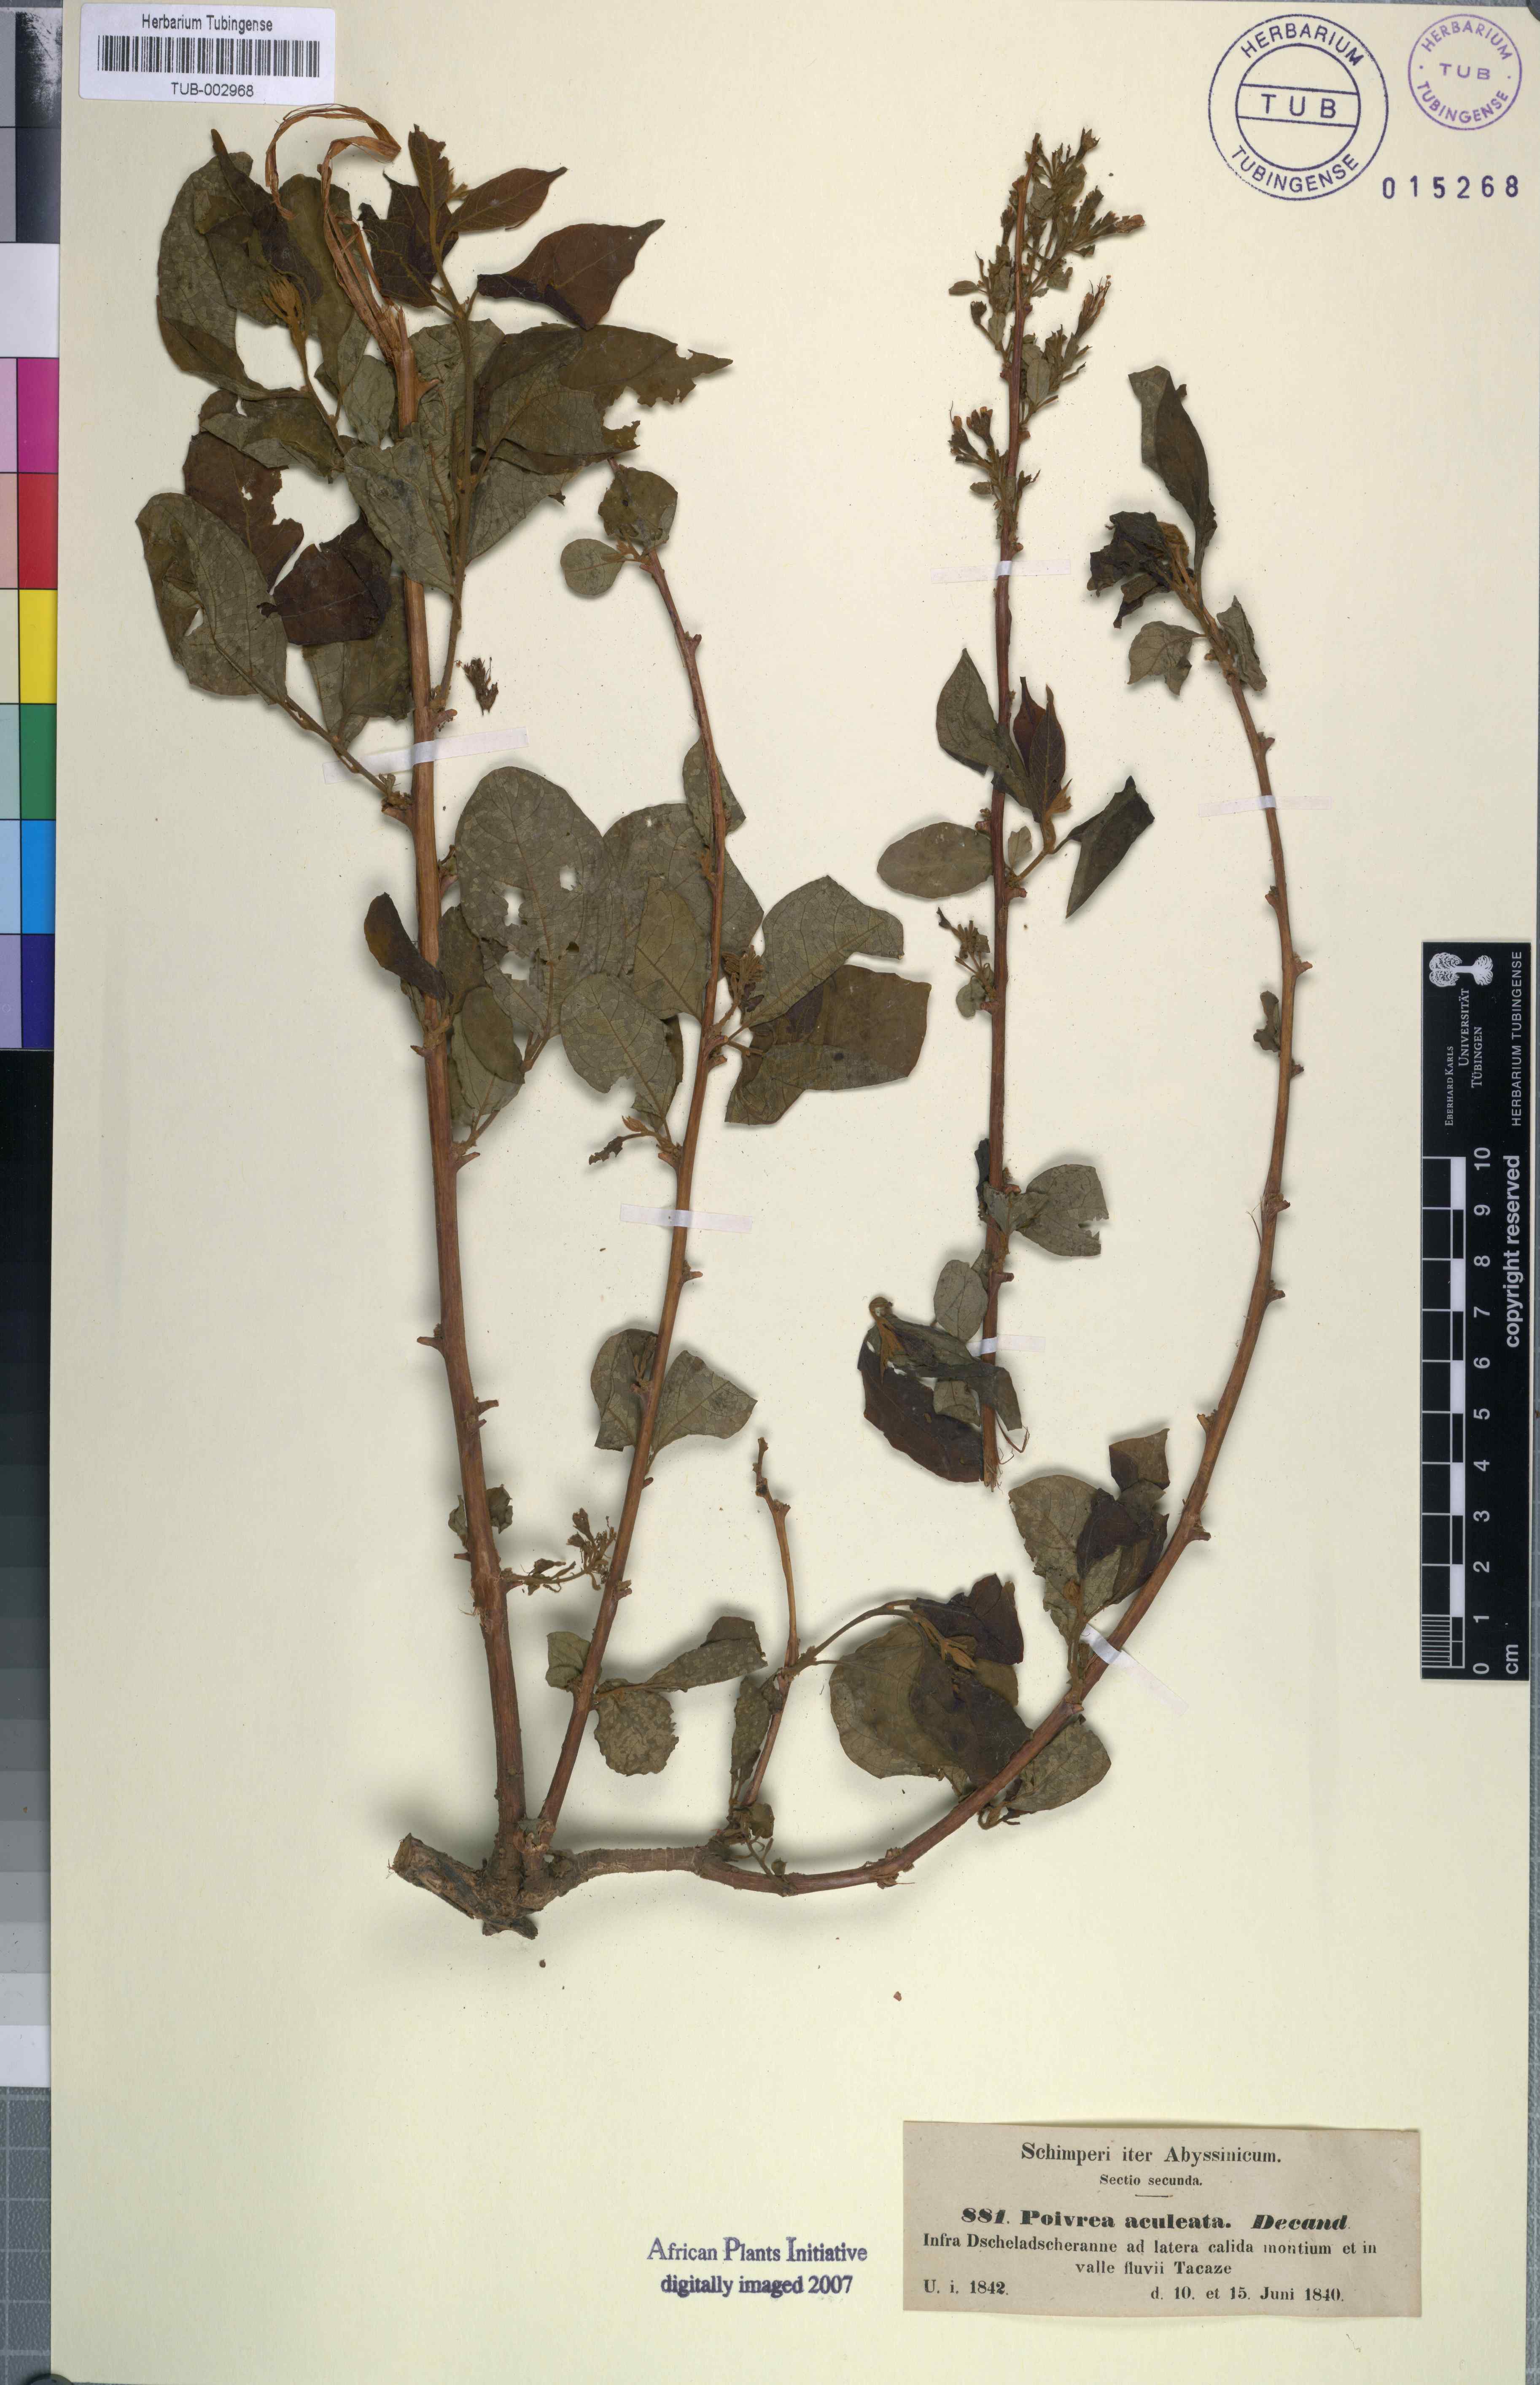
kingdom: Plantae
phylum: Tracheophyta
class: Magnoliopsida
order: Myrtales
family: Combretaceae
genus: Combretum
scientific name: Combretum aculeatum
